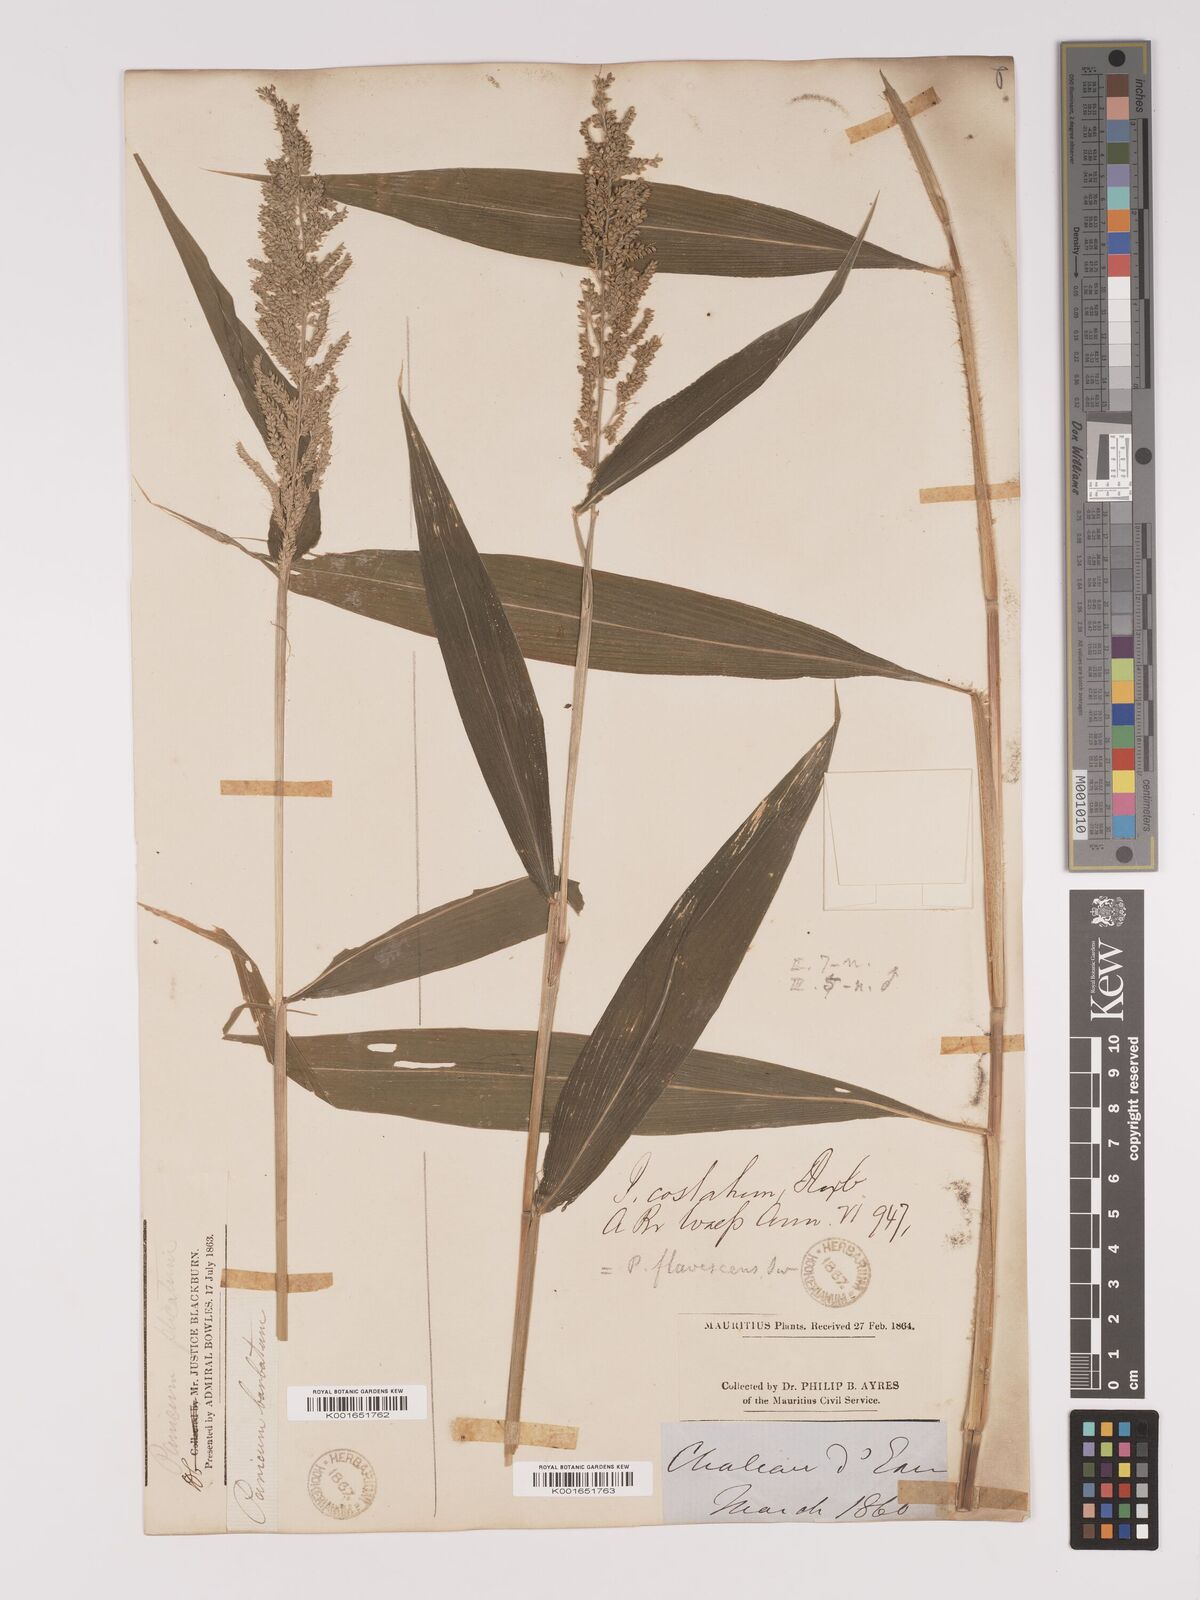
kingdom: Plantae
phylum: Tracheophyta
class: Liliopsida
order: Poales
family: Poaceae
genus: Setaria
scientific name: Setaria barbata
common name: East indian bristlegrass
